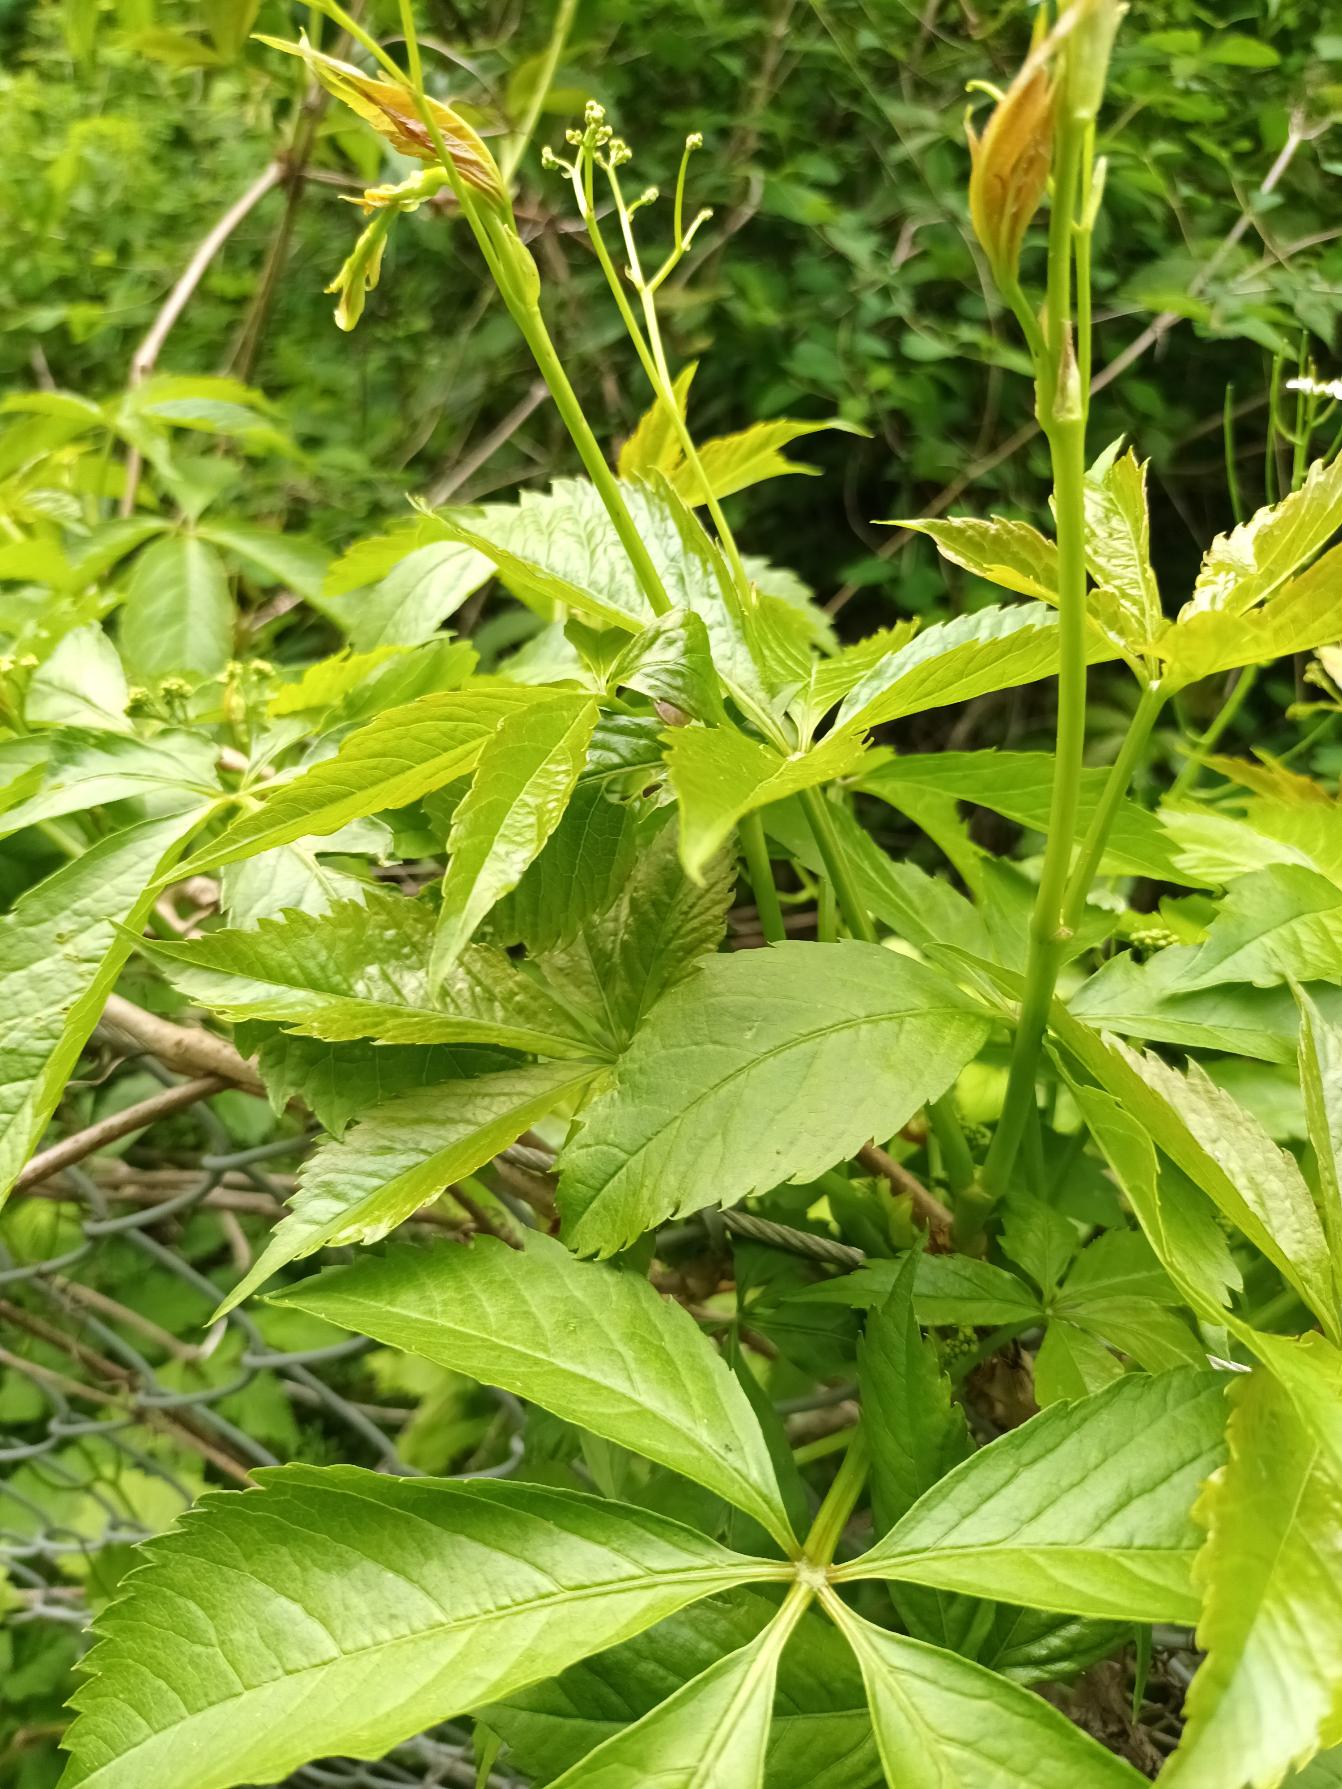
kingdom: Plantae
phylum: Tracheophyta
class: Magnoliopsida
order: Vitales
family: Vitaceae
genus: Parthenocissus
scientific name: Parthenocissus inserta
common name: Vildvin
